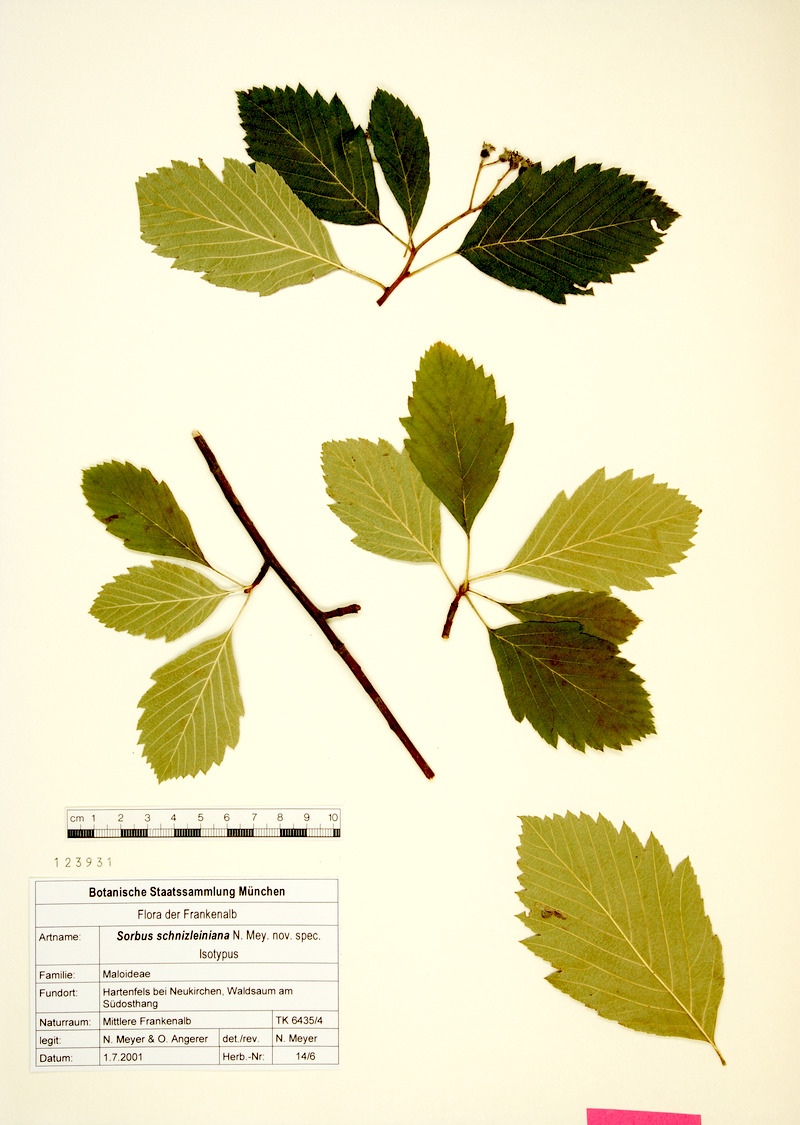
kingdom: Plantae
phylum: Tracheophyta
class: Magnoliopsida
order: Rosales
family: Rosaceae
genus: Karpatiosorbus
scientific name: Karpatiosorbus schnizleiniana
